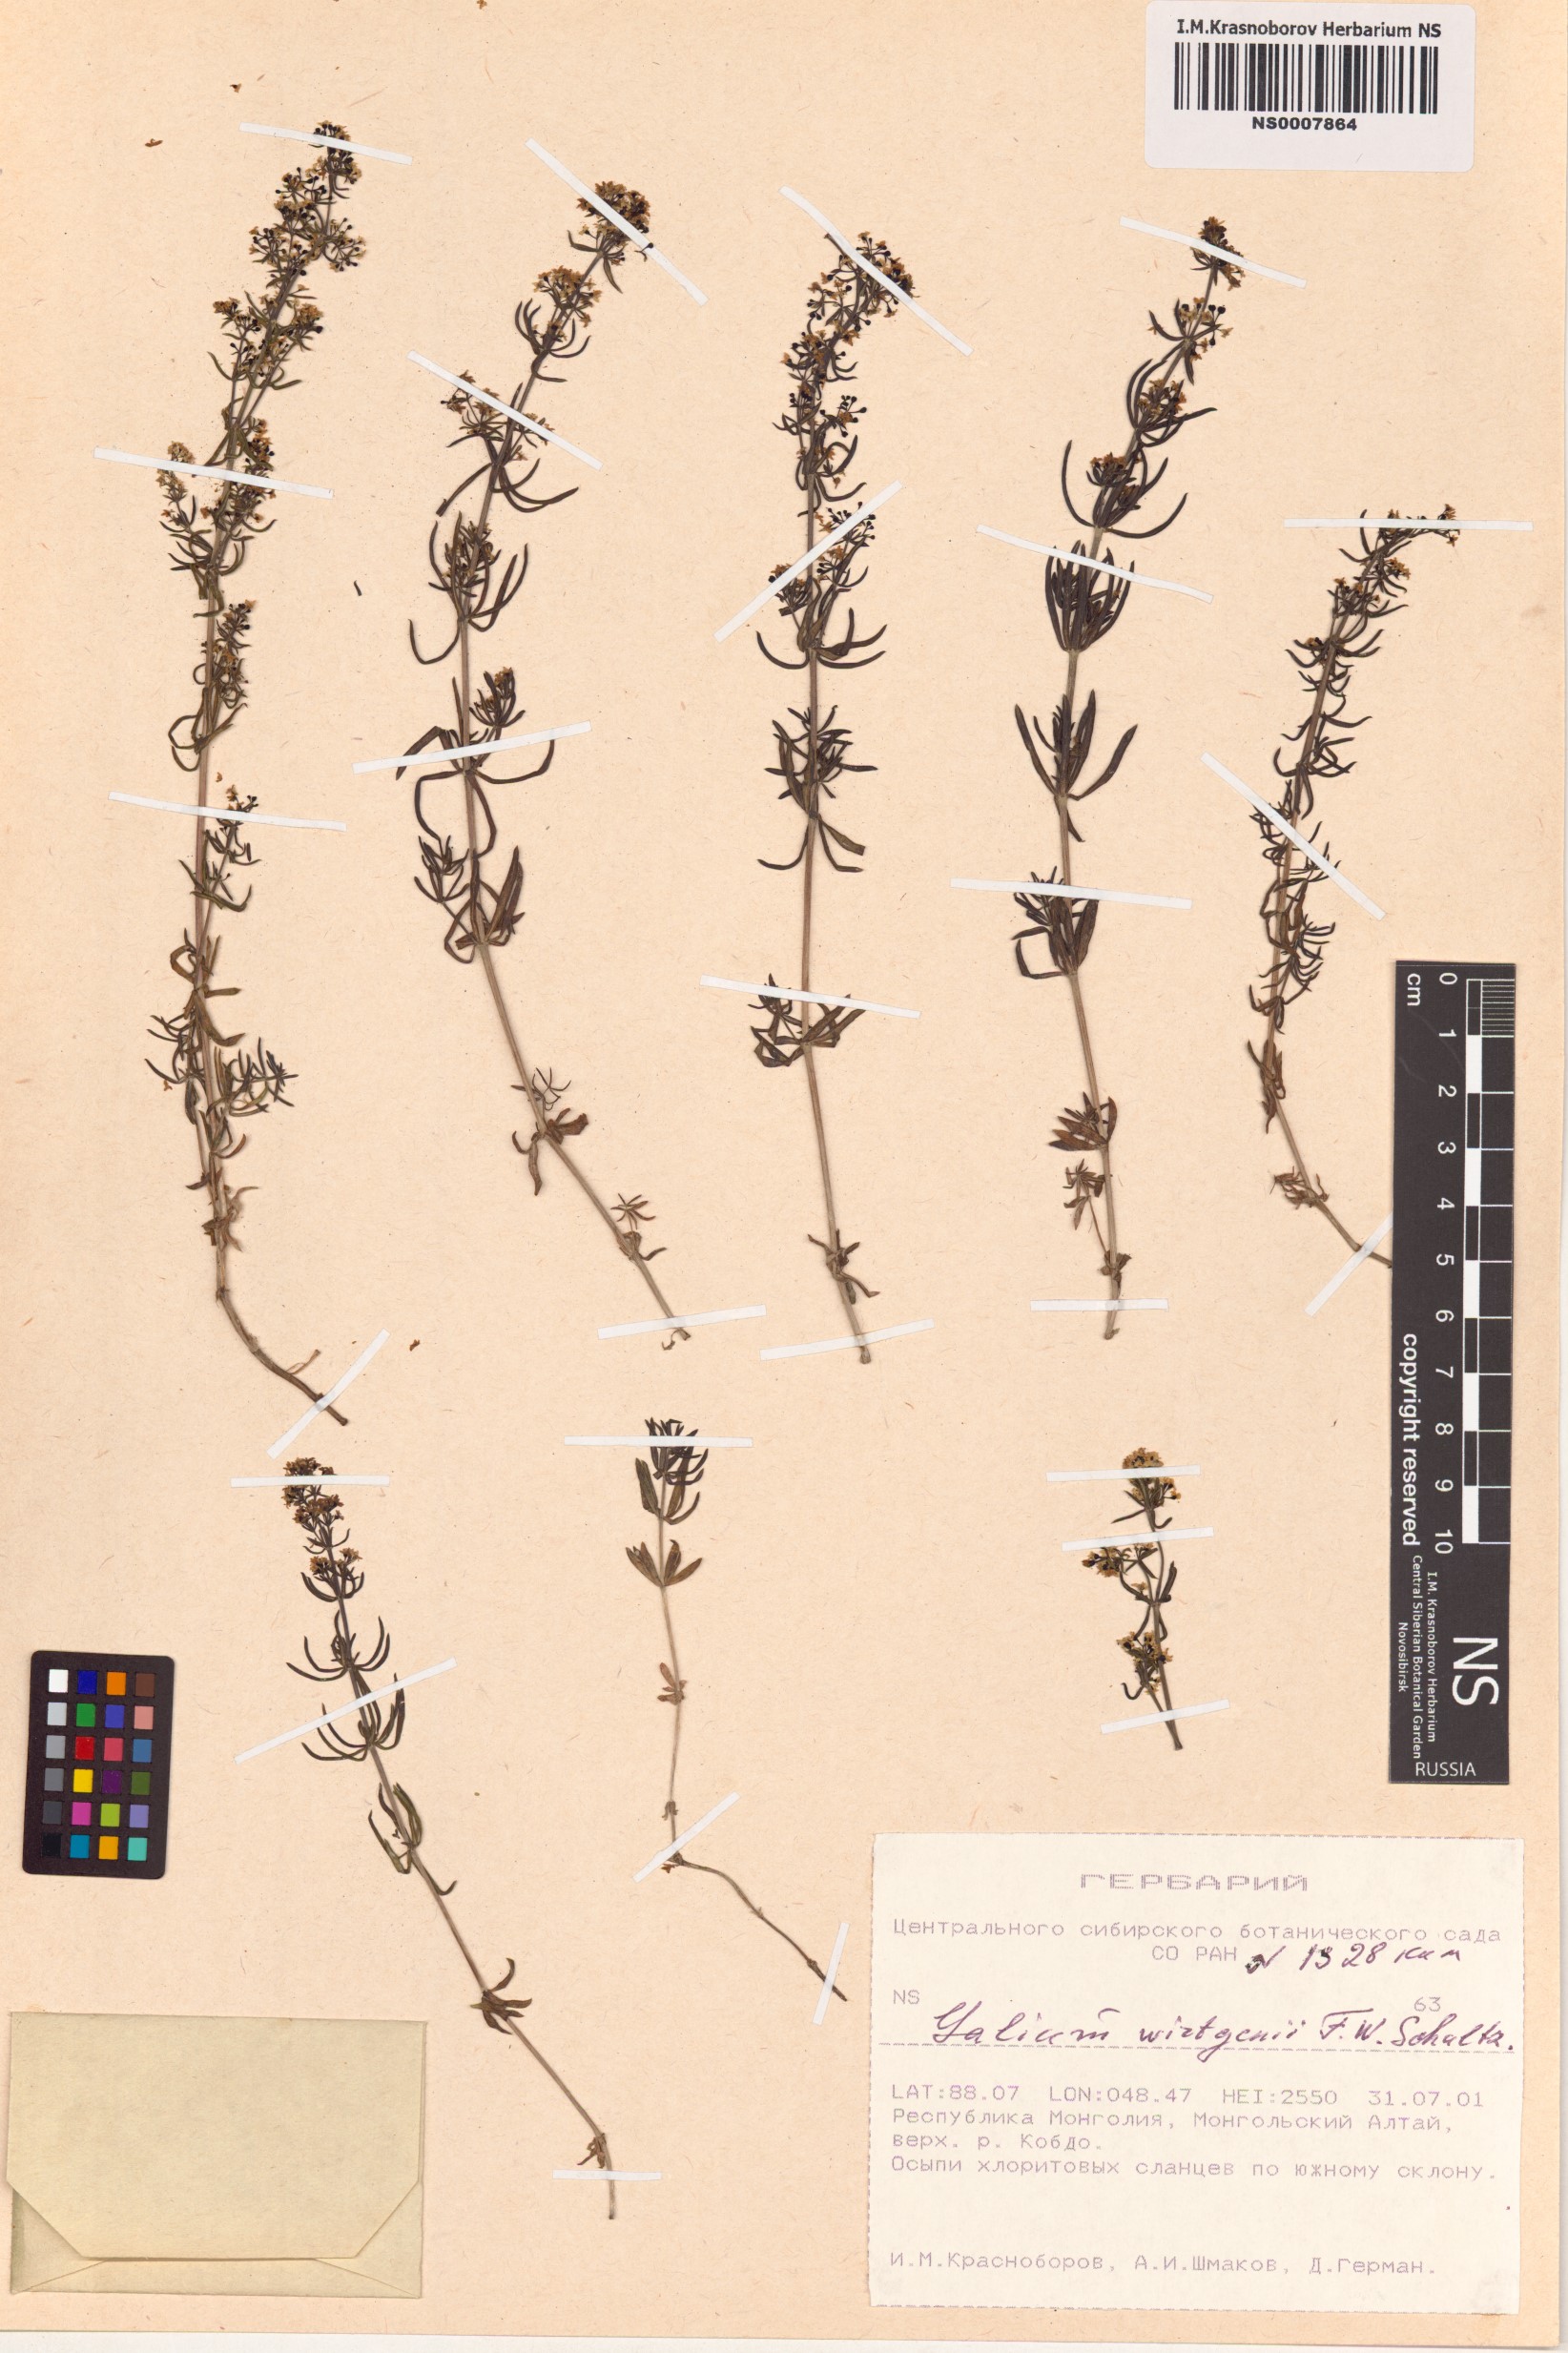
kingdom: Plantae
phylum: Tracheophyta
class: Magnoliopsida
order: Gentianales
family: Rubiaceae
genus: Galium
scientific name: Galium verum
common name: Lady's bedstraw
